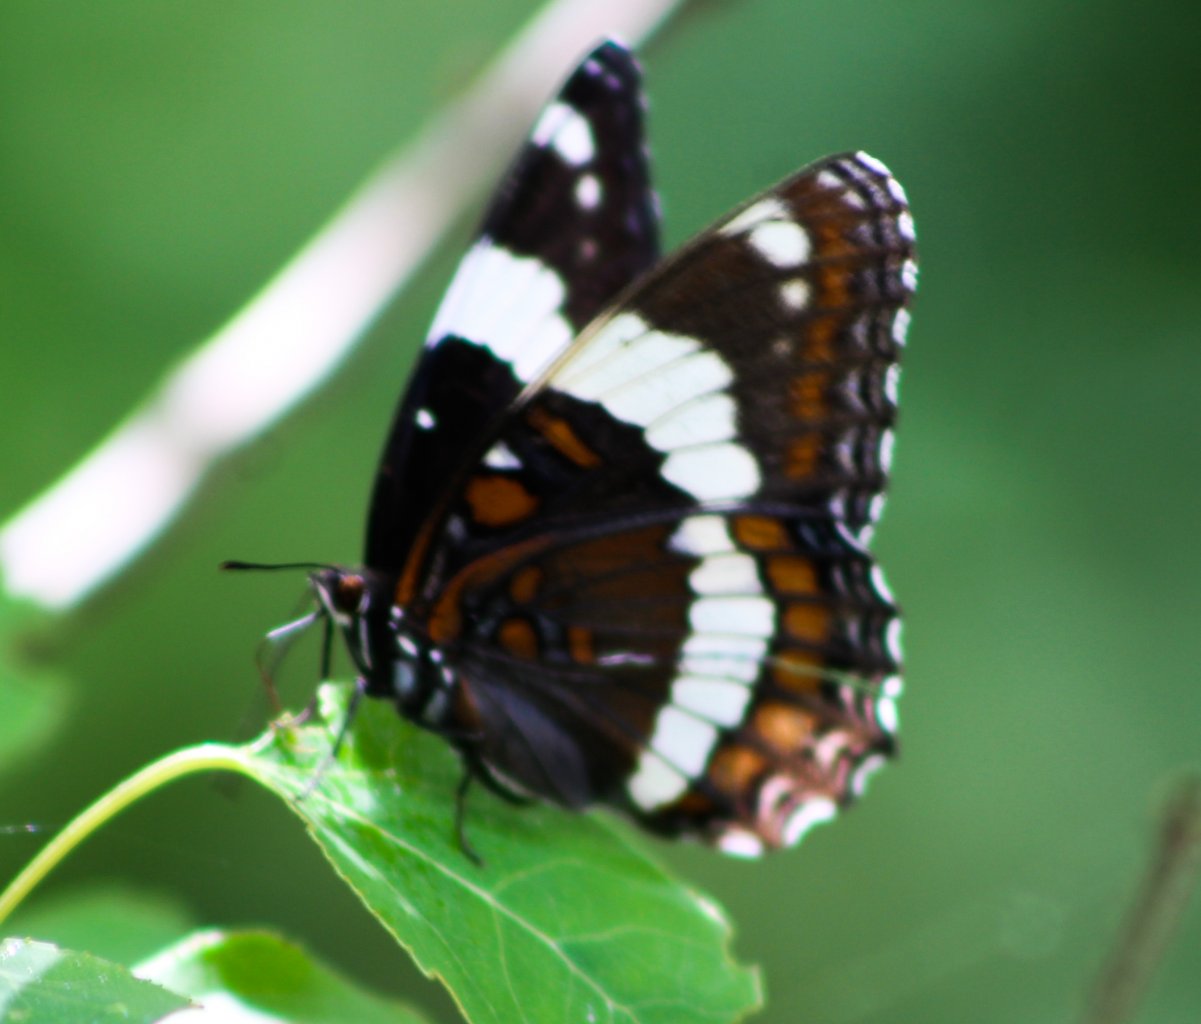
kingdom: Animalia
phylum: Arthropoda
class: Insecta
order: Lepidoptera
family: Nymphalidae
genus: Limenitis
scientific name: Limenitis arthemis
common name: Red-spotted Admiral
